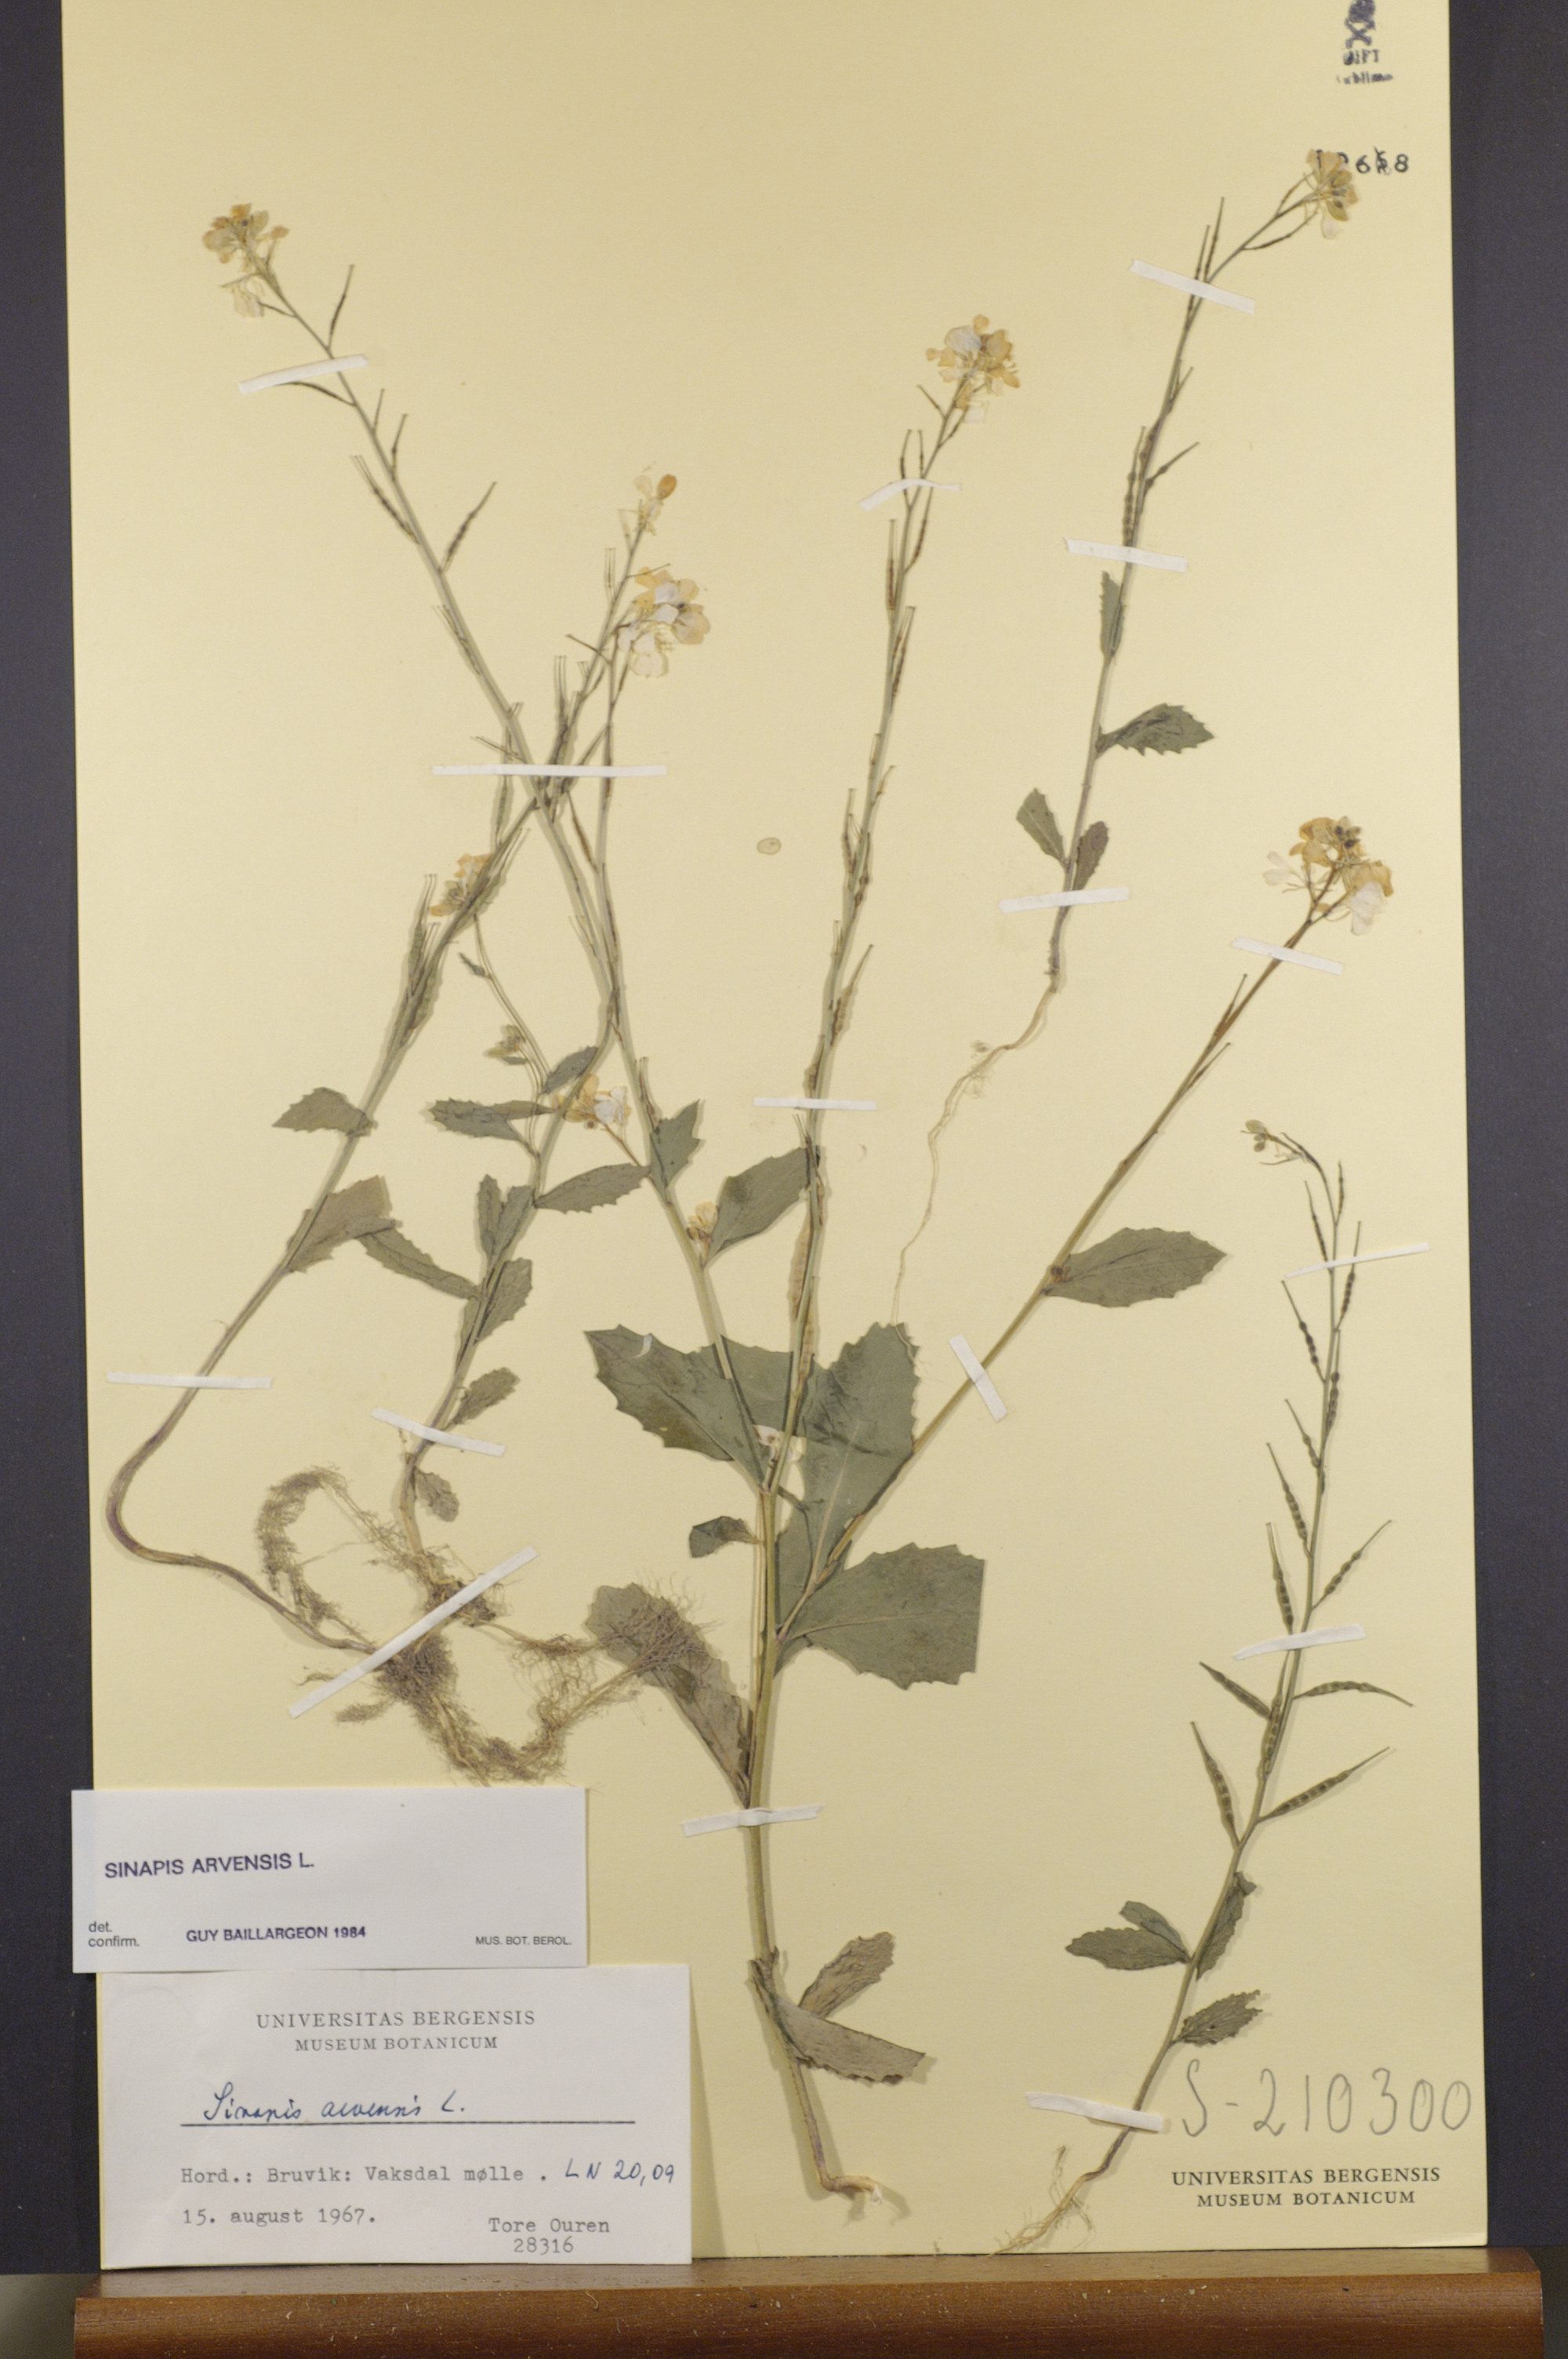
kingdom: Plantae
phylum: Tracheophyta
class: Magnoliopsida
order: Brassicales
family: Brassicaceae
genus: Sinapis
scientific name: Sinapis arvensis
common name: Charlock
